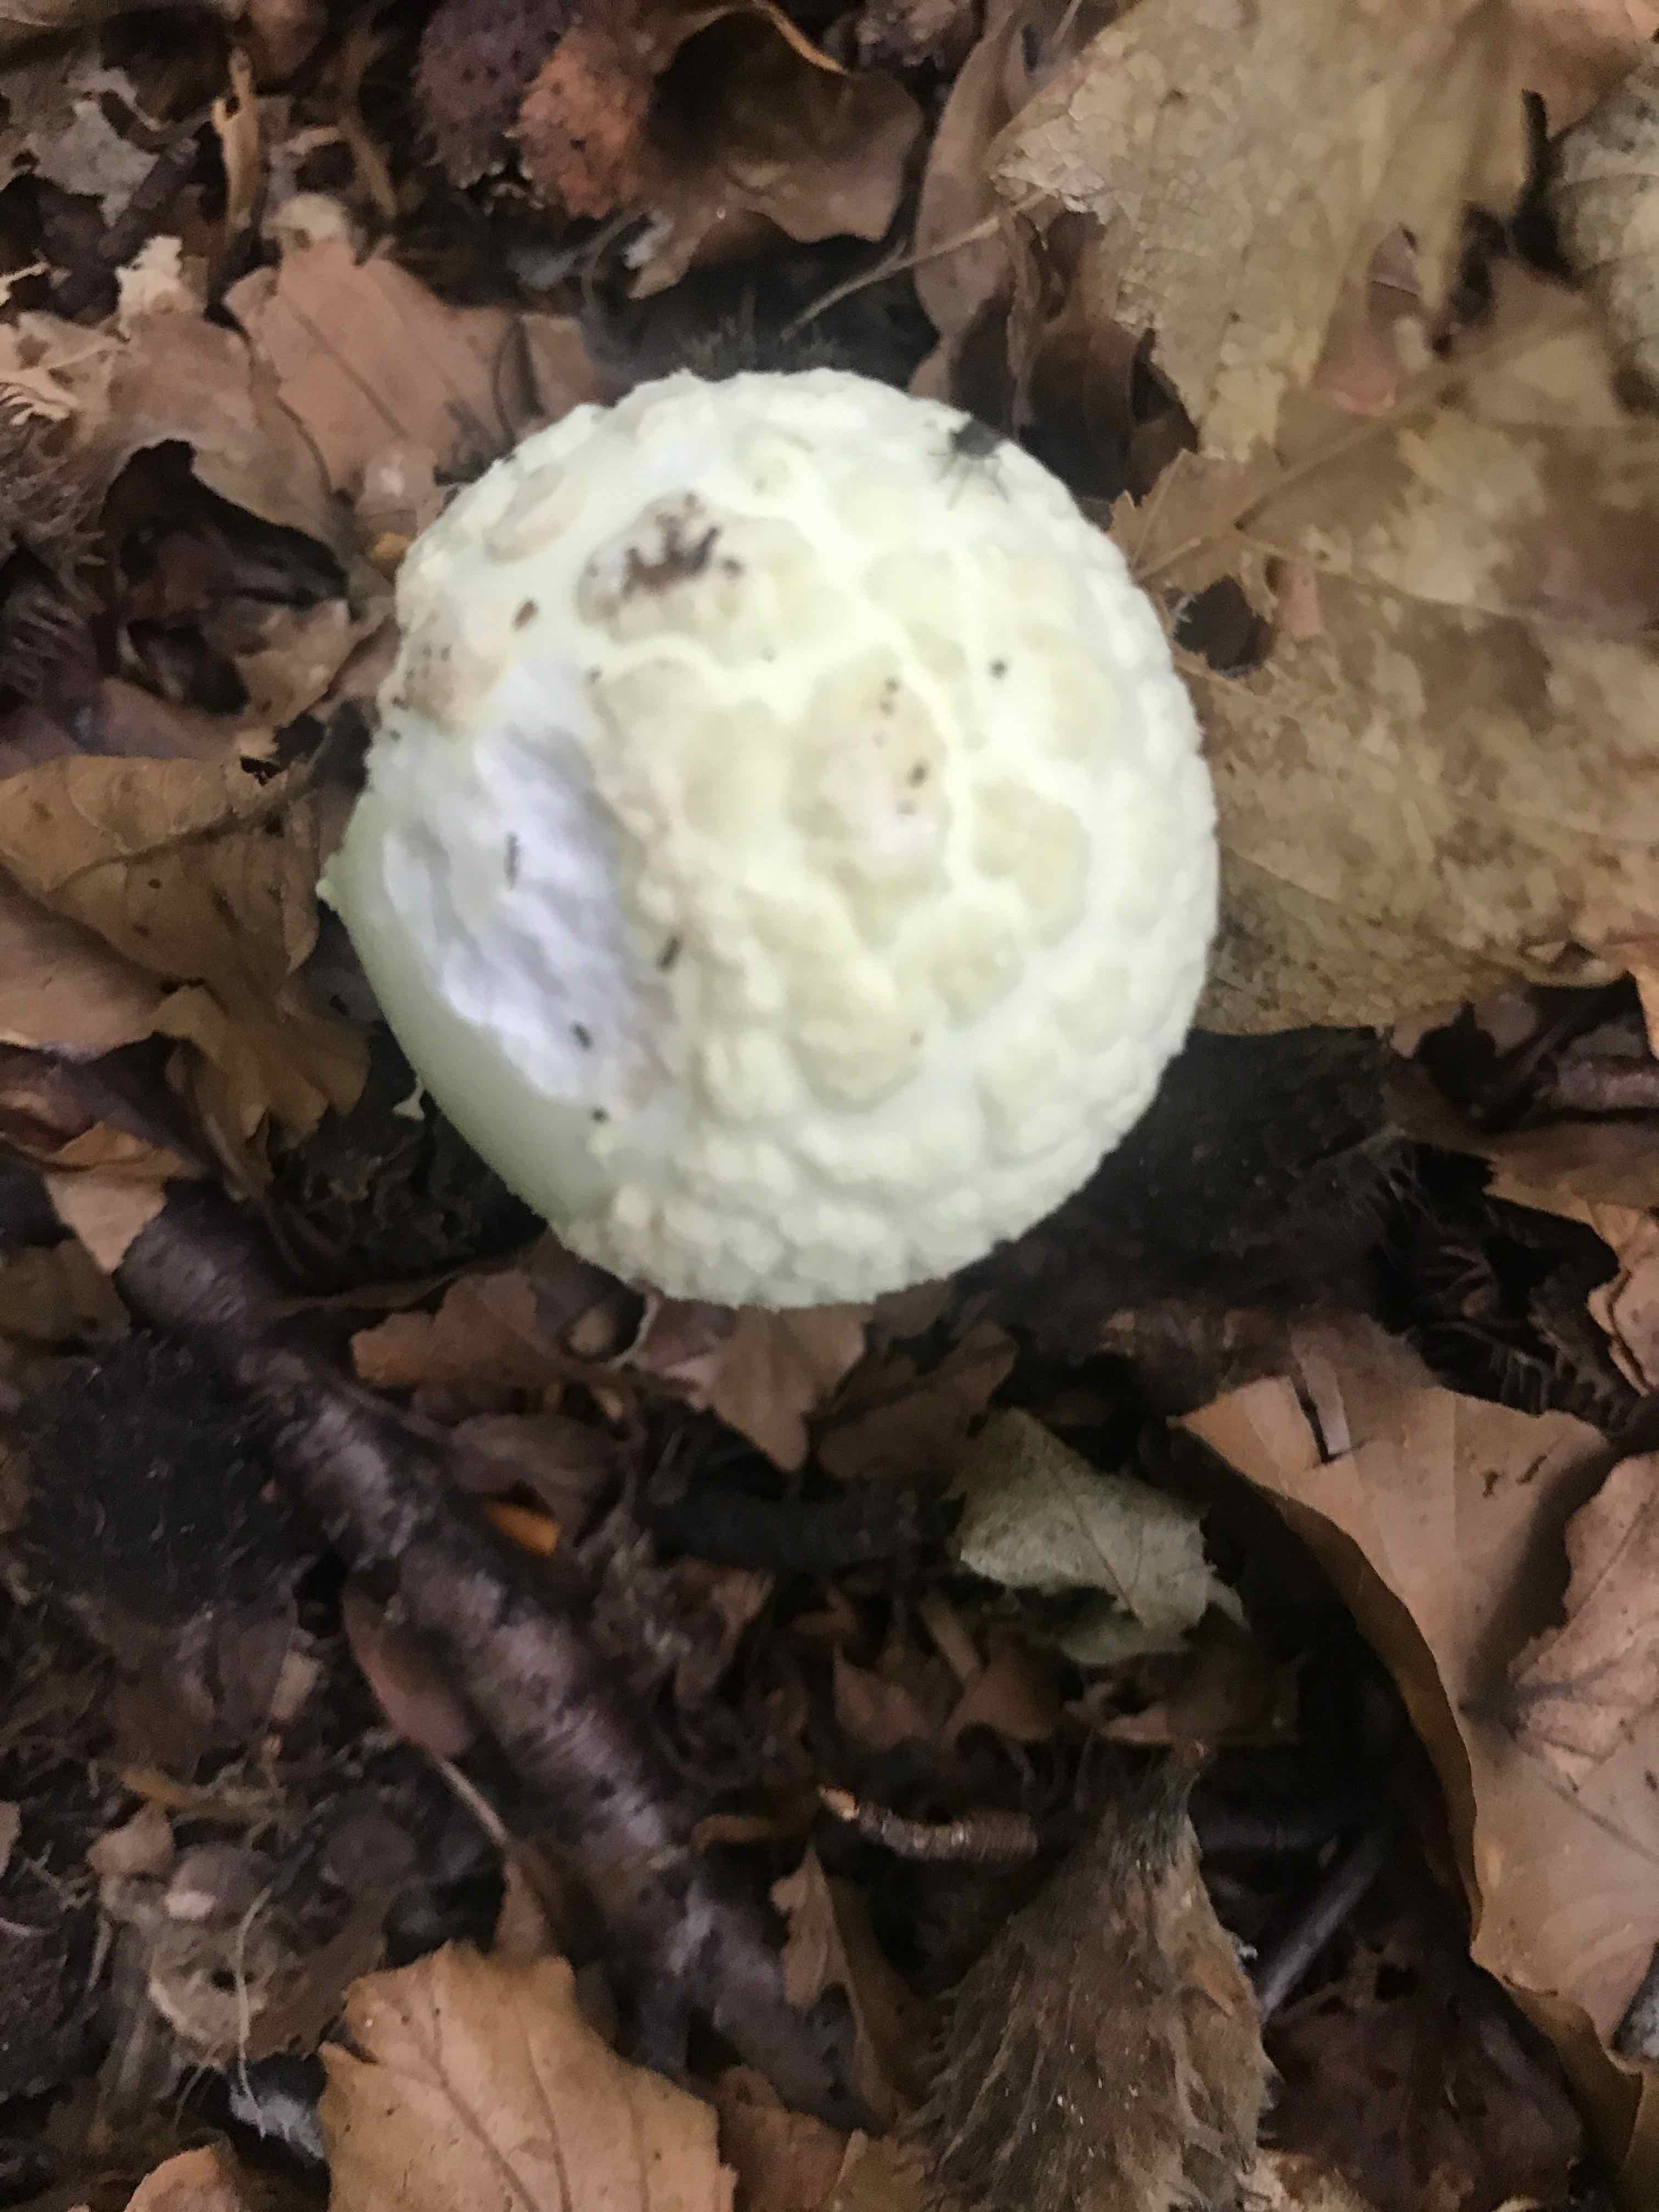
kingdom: Fungi
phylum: Basidiomycota
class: Agaricomycetes
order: Agaricales
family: Amanitaceae
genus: Amanita
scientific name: Amanita citrina
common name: kugleknoldet fluesvamp
